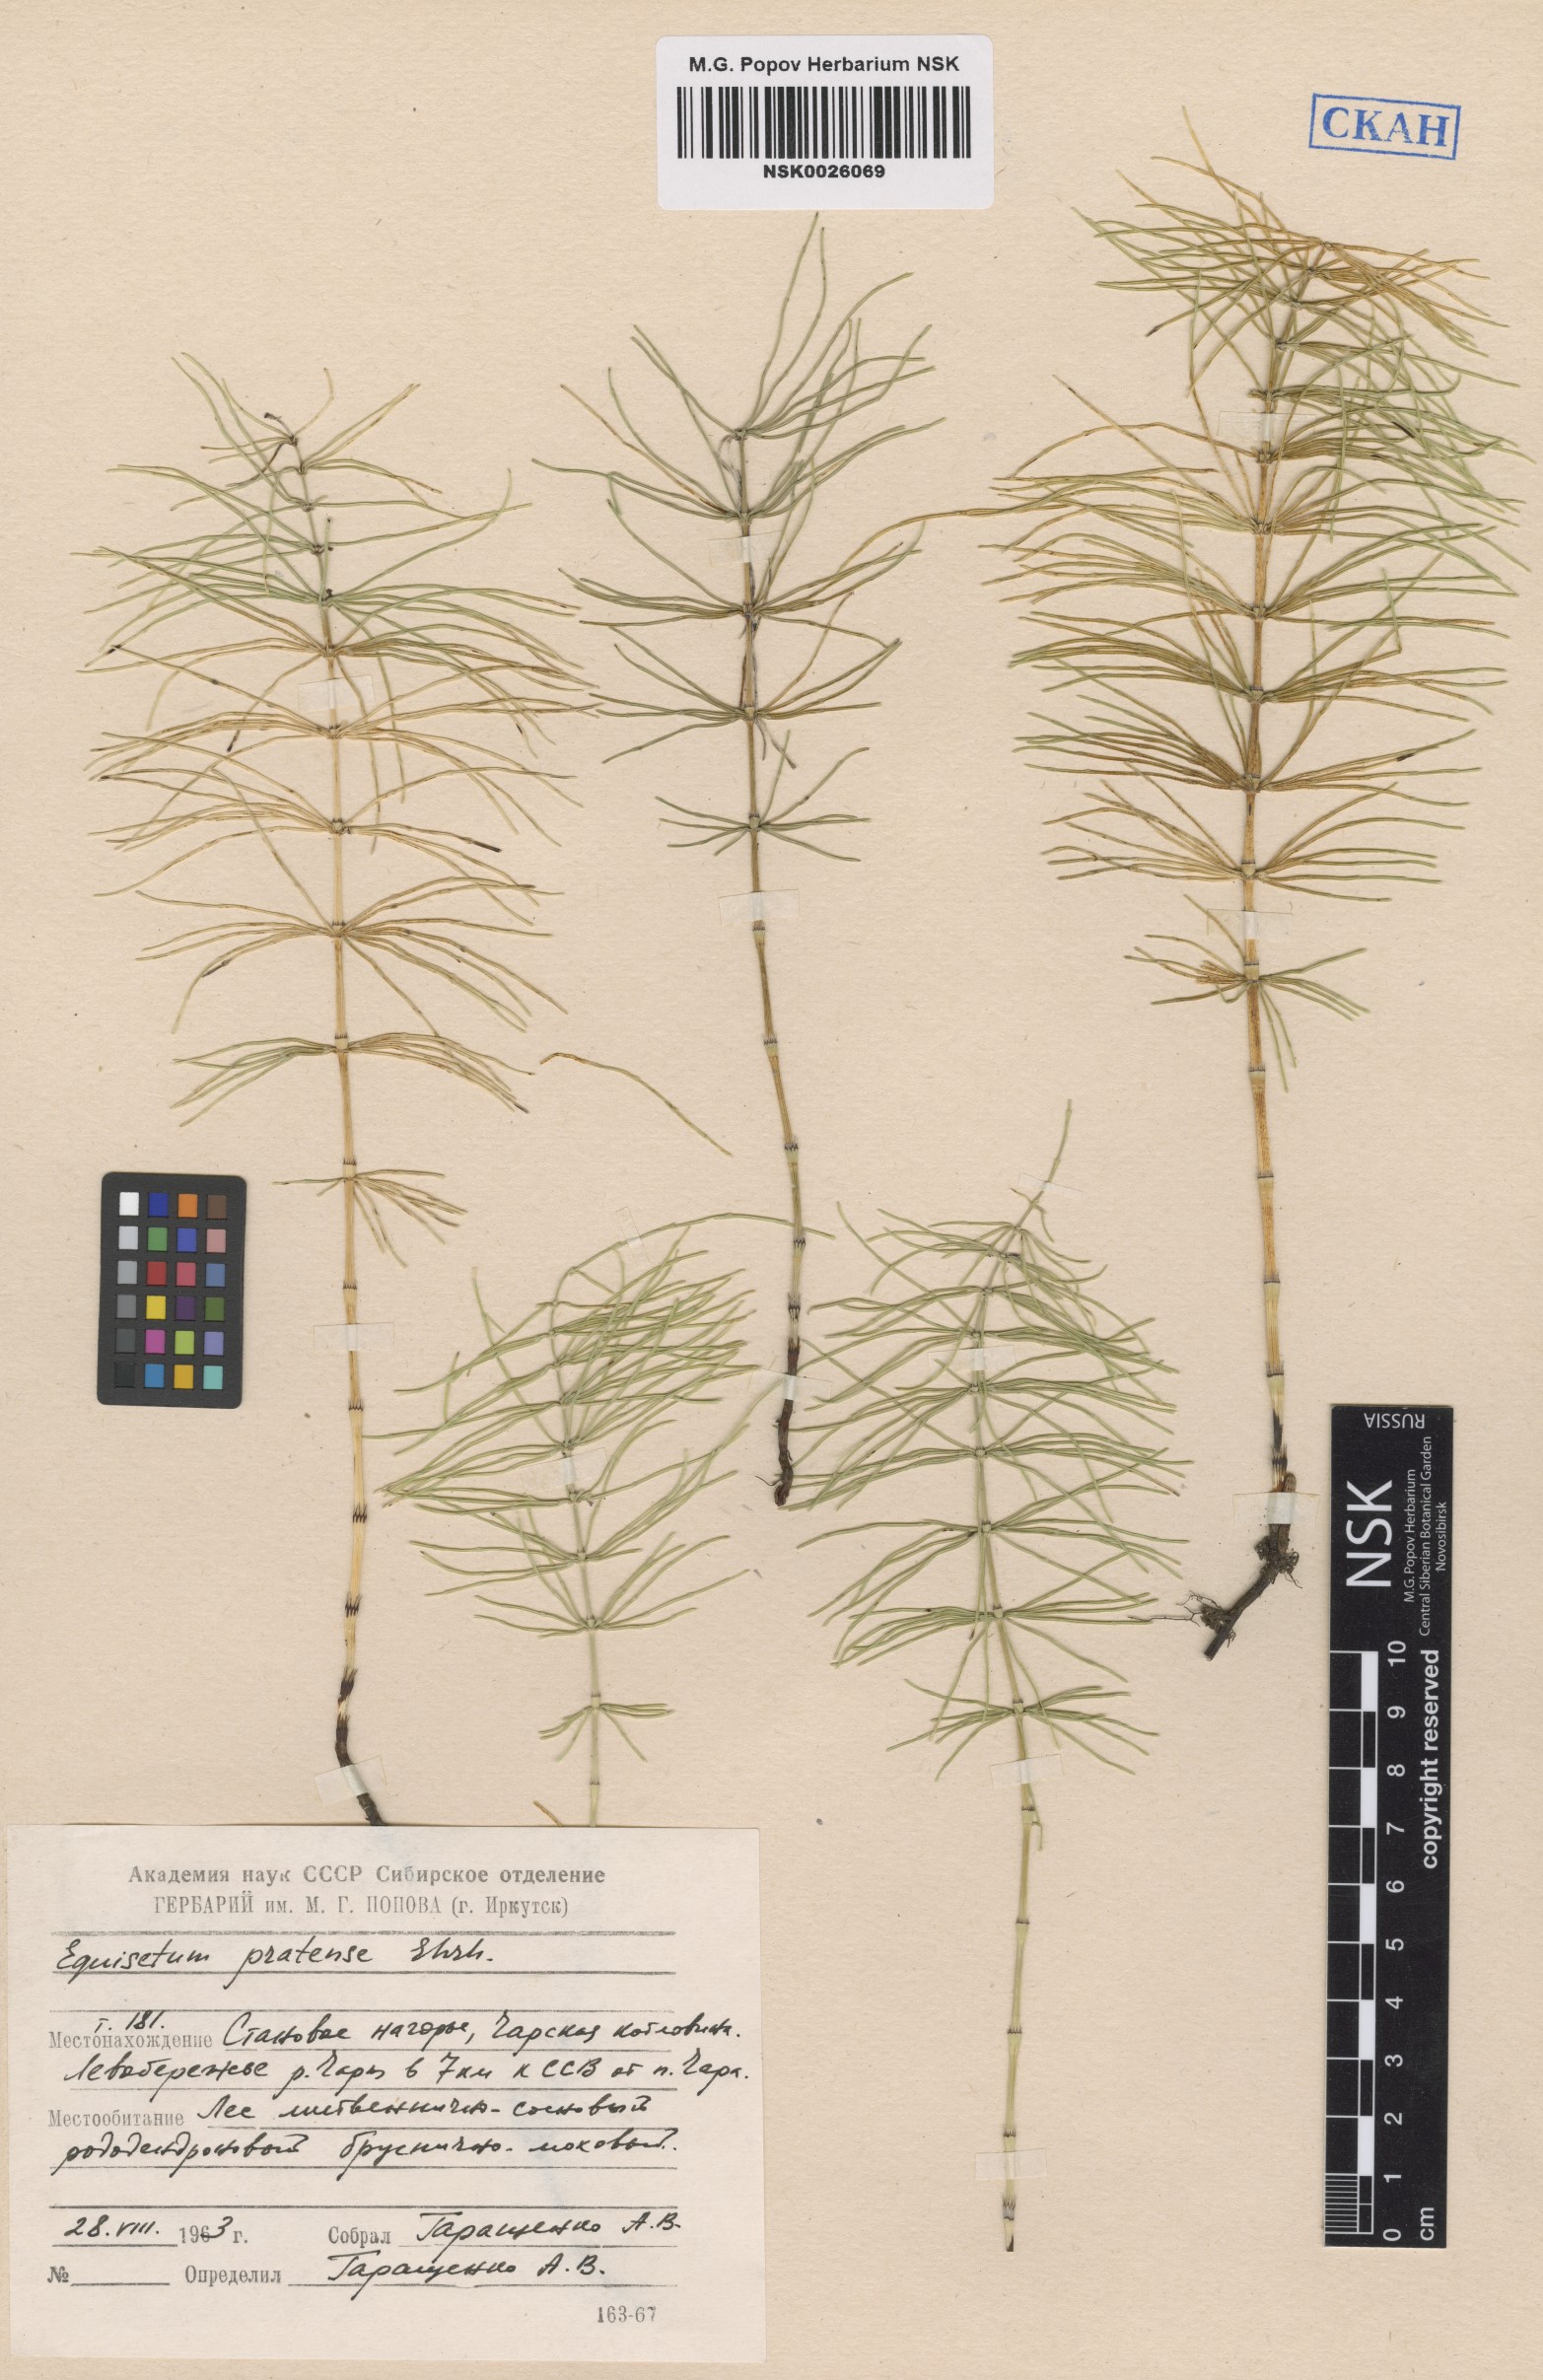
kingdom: Plantae
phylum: Tracheophyta
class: Polypodiopsida
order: Equisetales
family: Equisetaceae
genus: Equisetum
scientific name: Equisetum pratense
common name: Meadow horsetail
